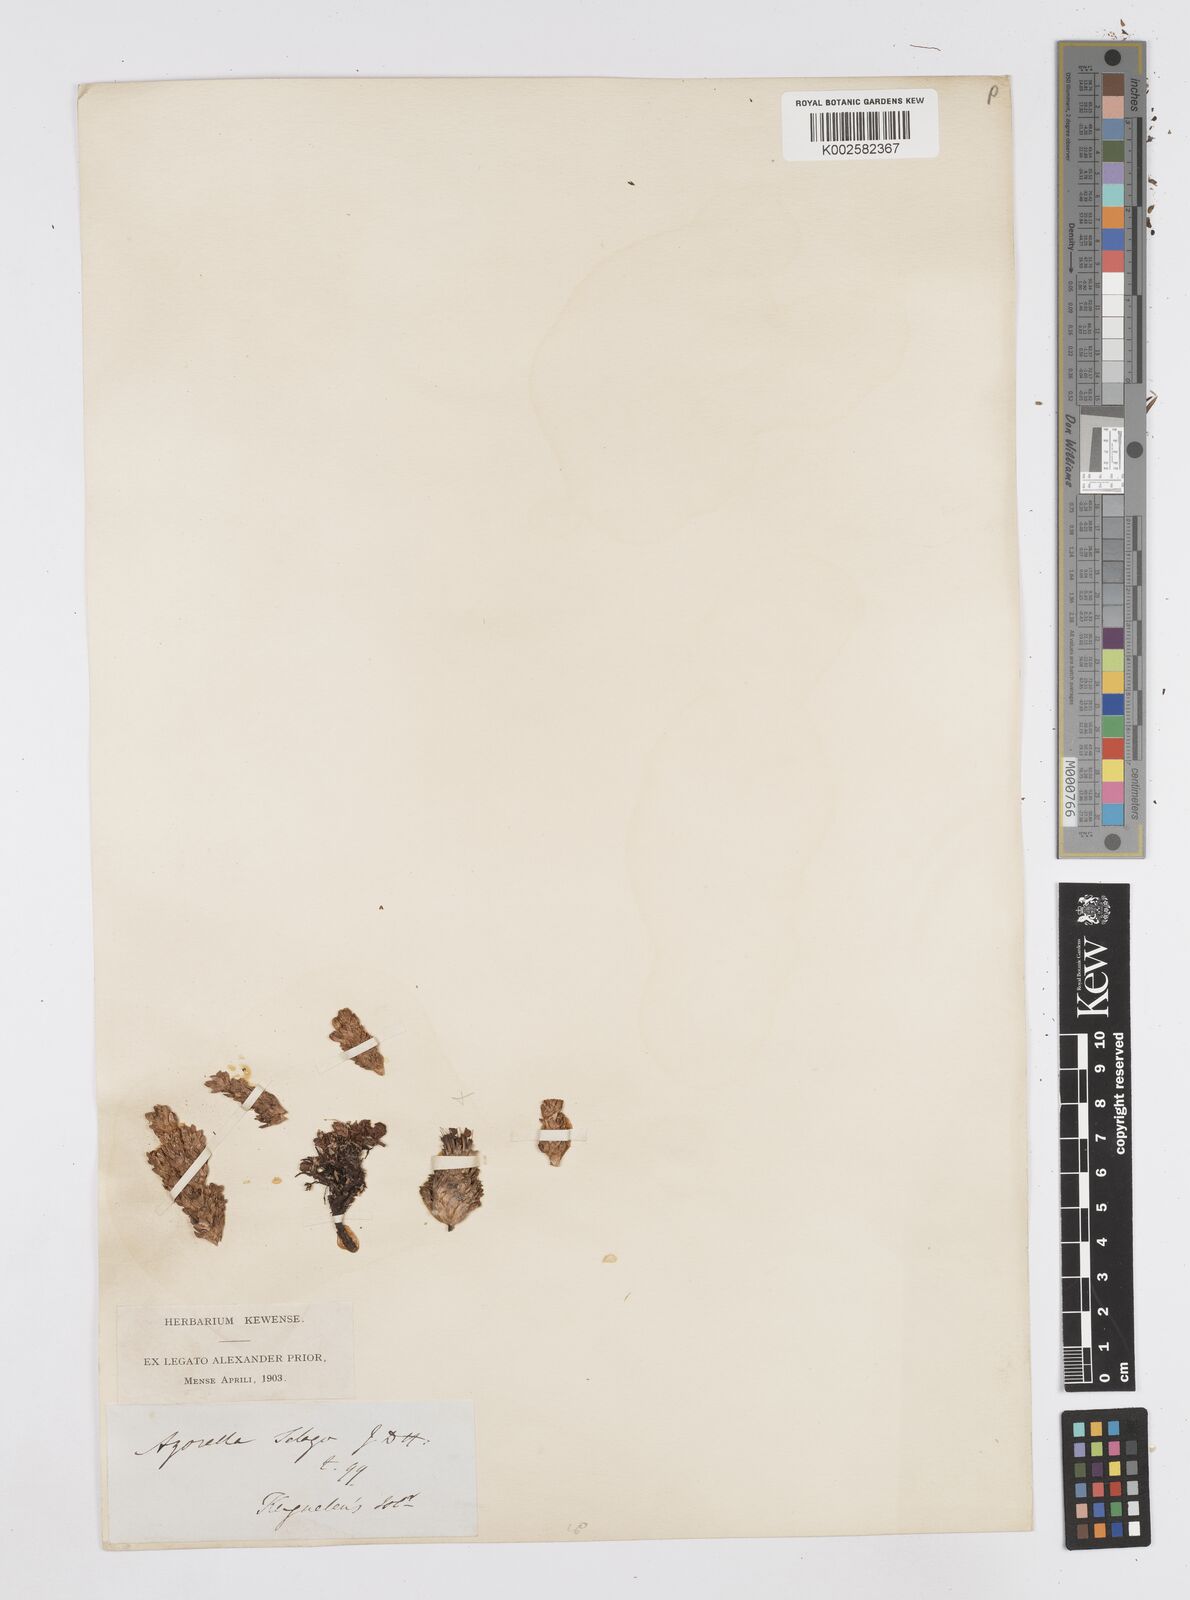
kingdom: Plantae
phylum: Tracheophyta
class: Magnoliopsida
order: Apiales
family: Apiaceae
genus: Azorella
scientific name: Azorella selago
